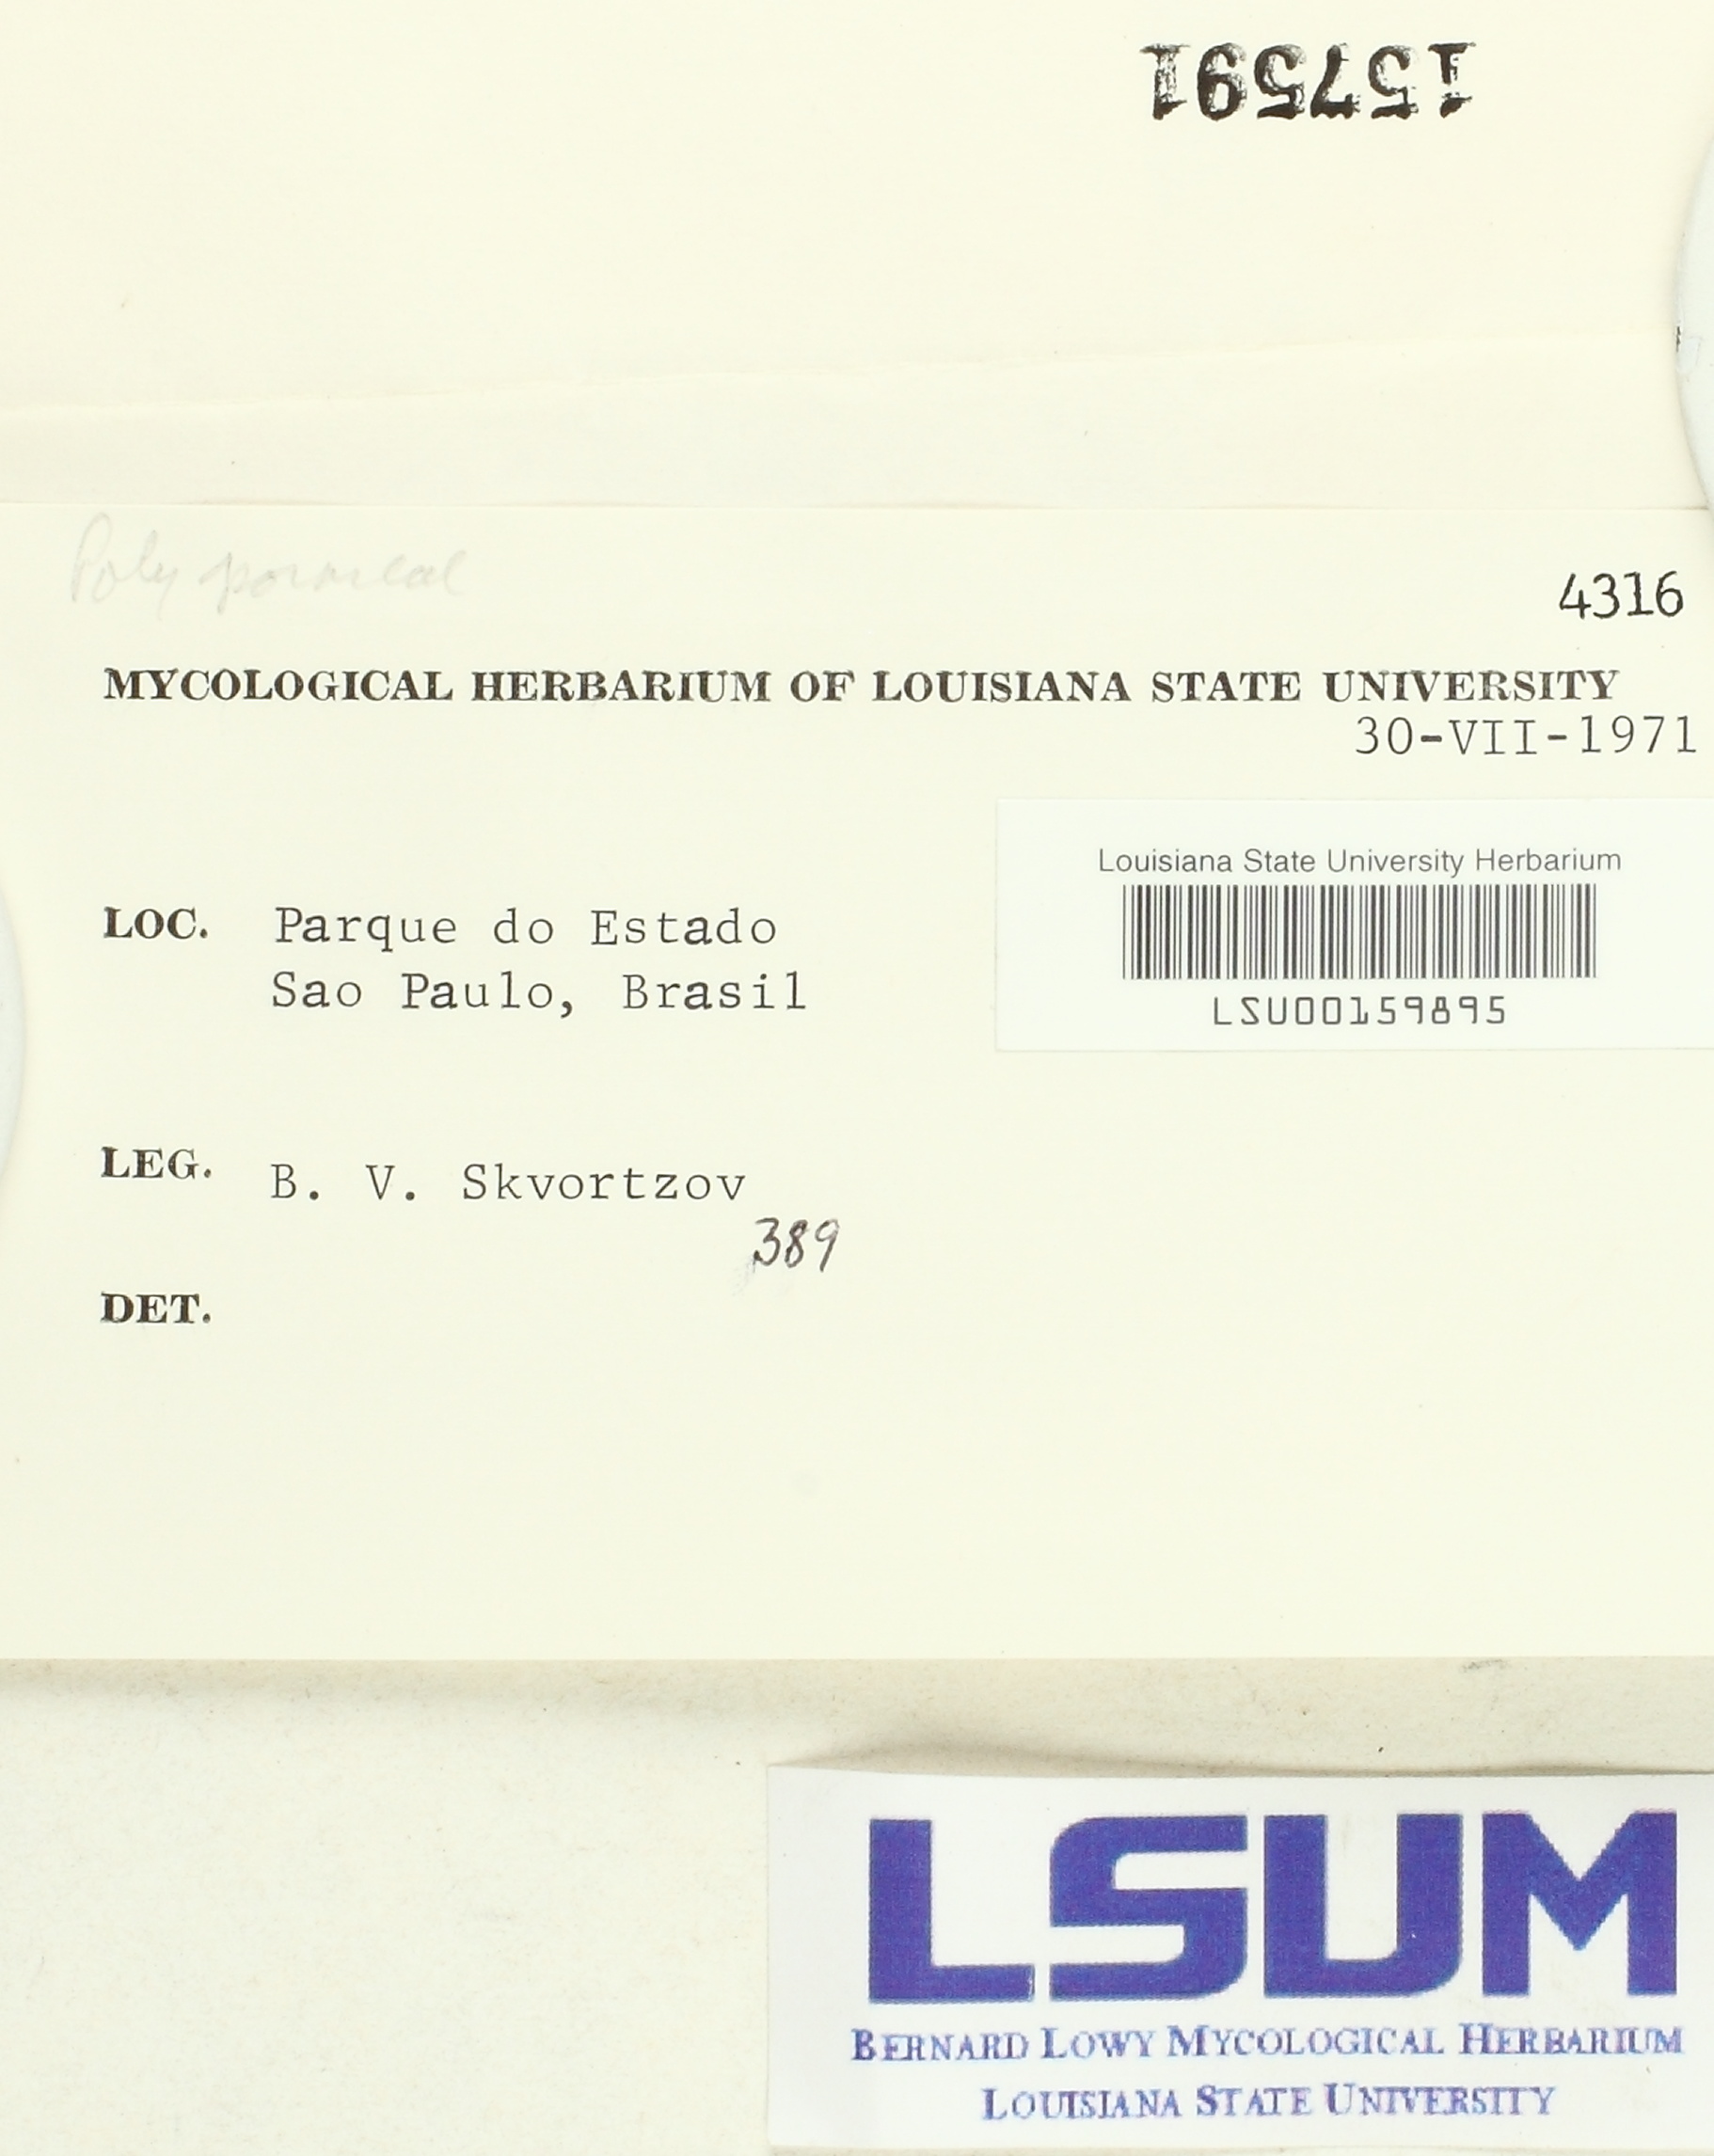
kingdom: Fungi
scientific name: Fungi
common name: Fungi
